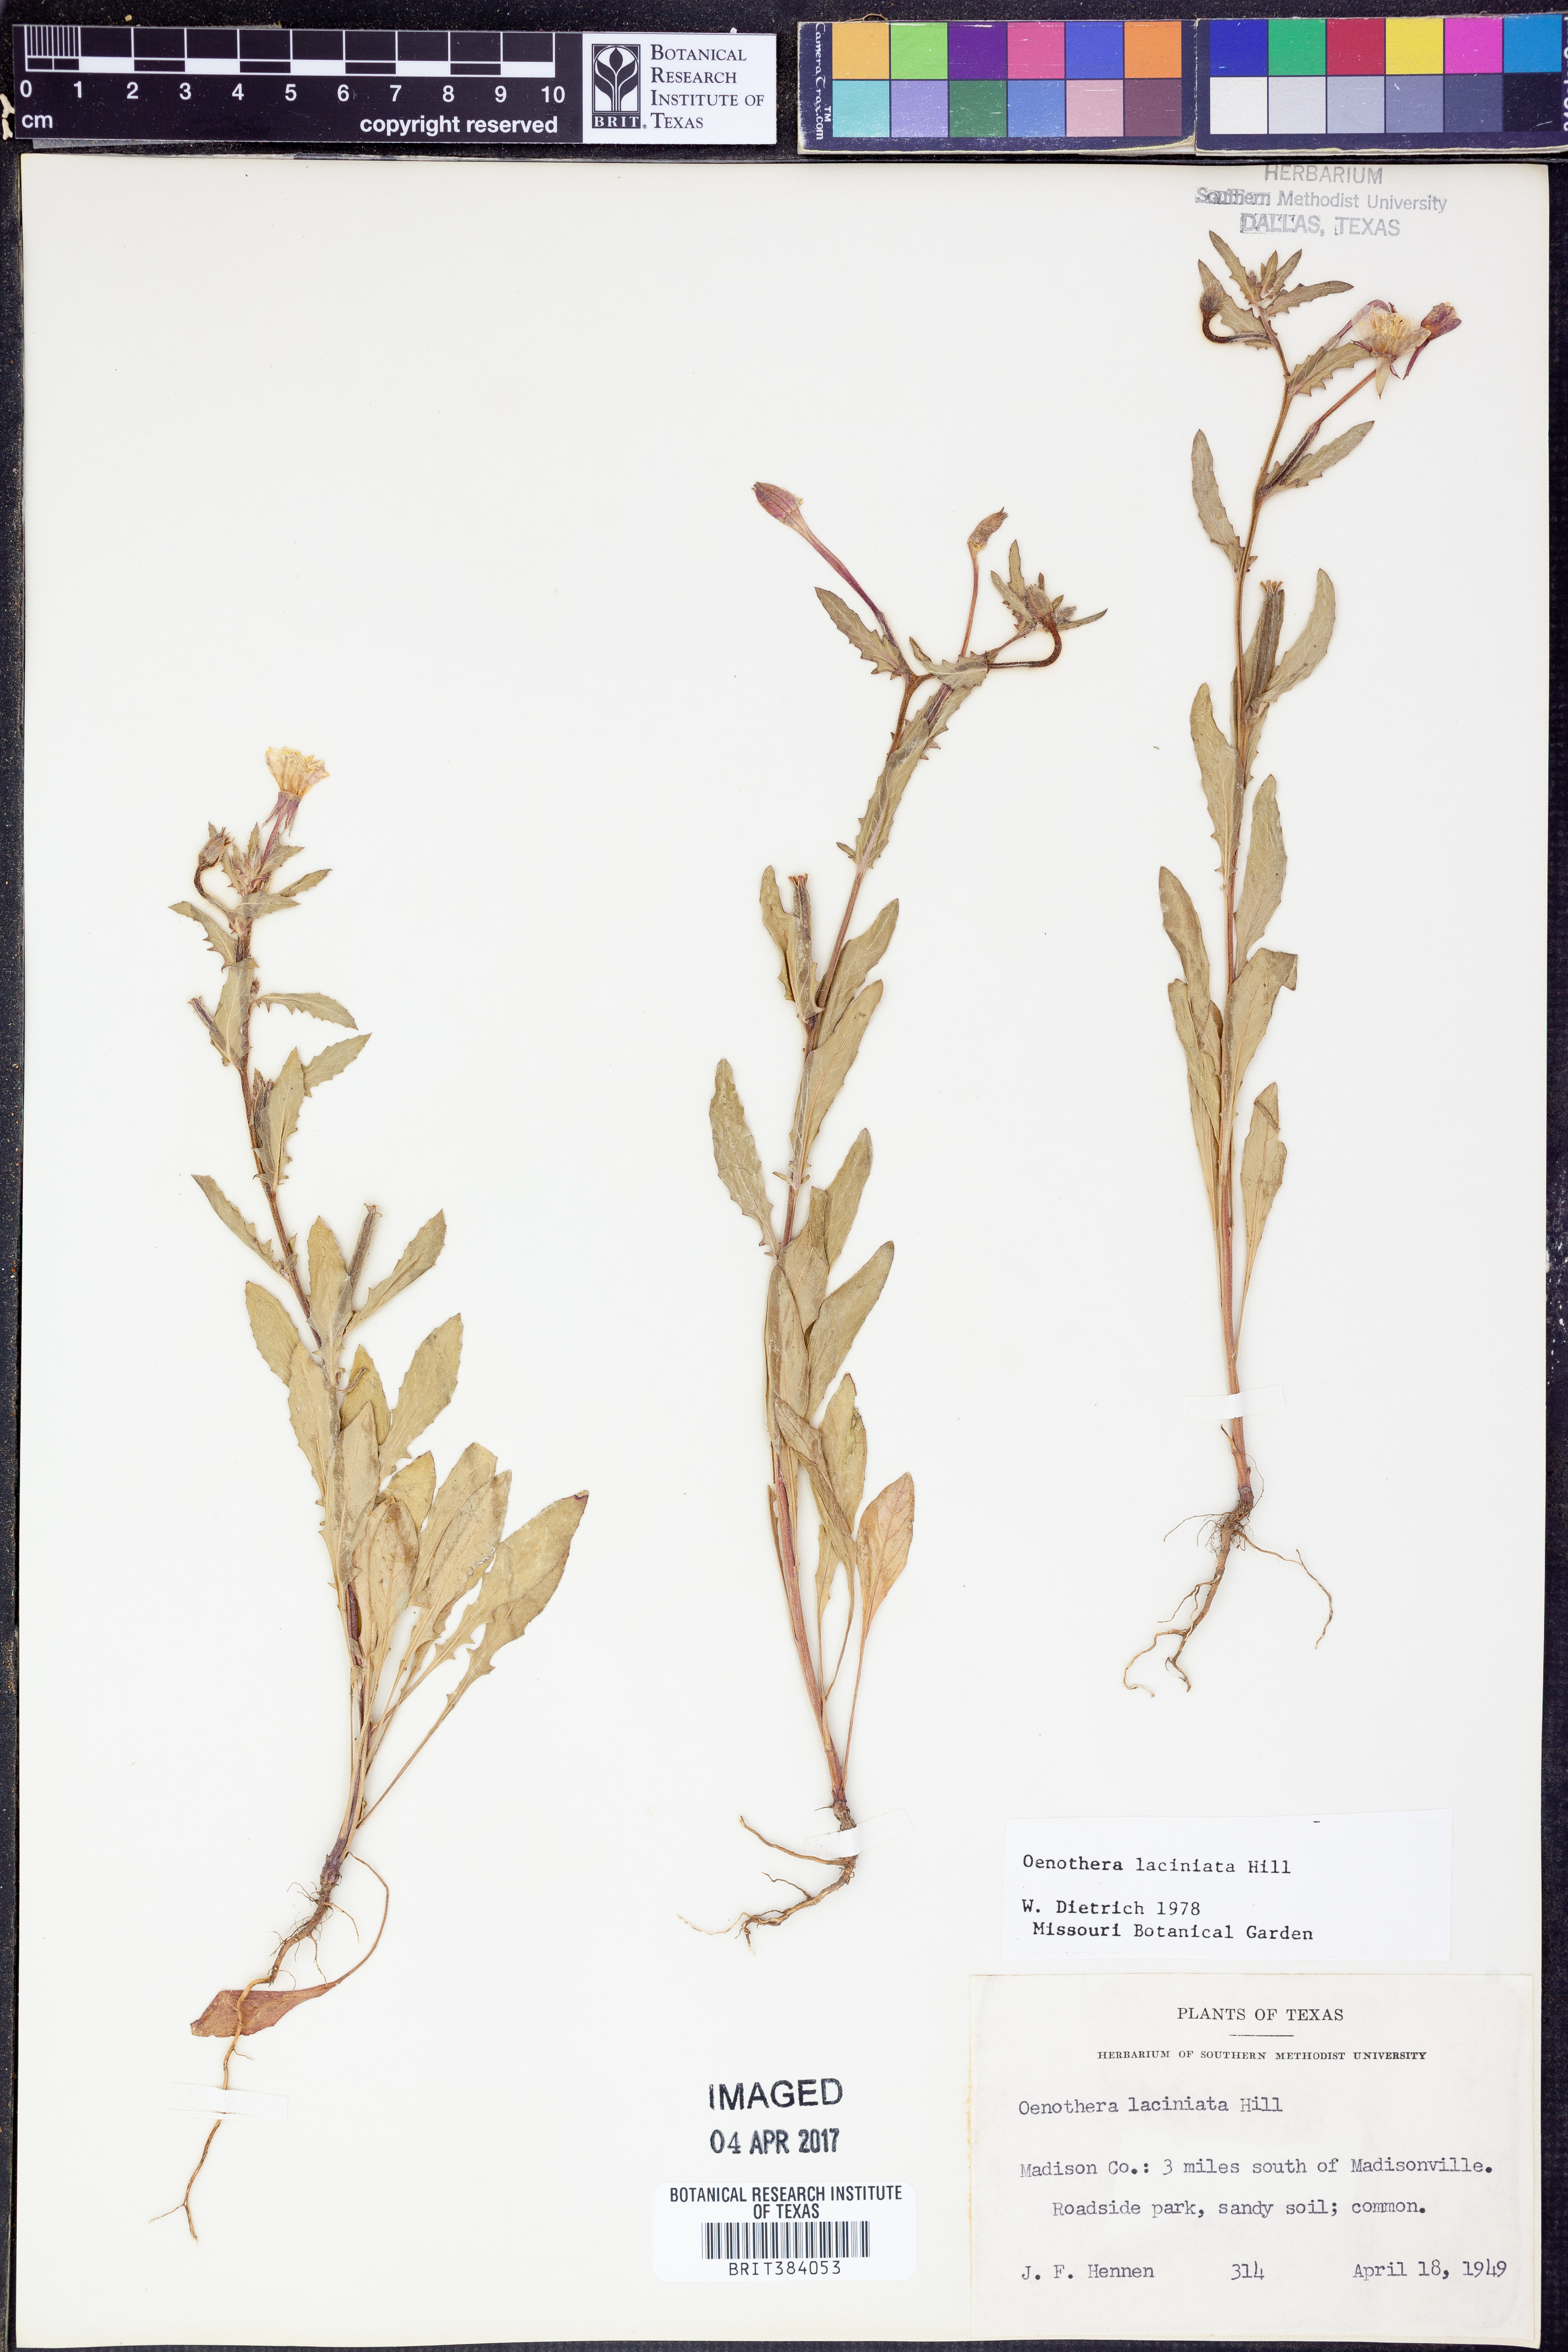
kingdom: Plantae
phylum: Tracheophyta
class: Magnoliopsida
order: Myrtales
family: Onagraceae
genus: Oenothera
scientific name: Oenothera laciniata
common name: Cut-leaved evening-primrose
